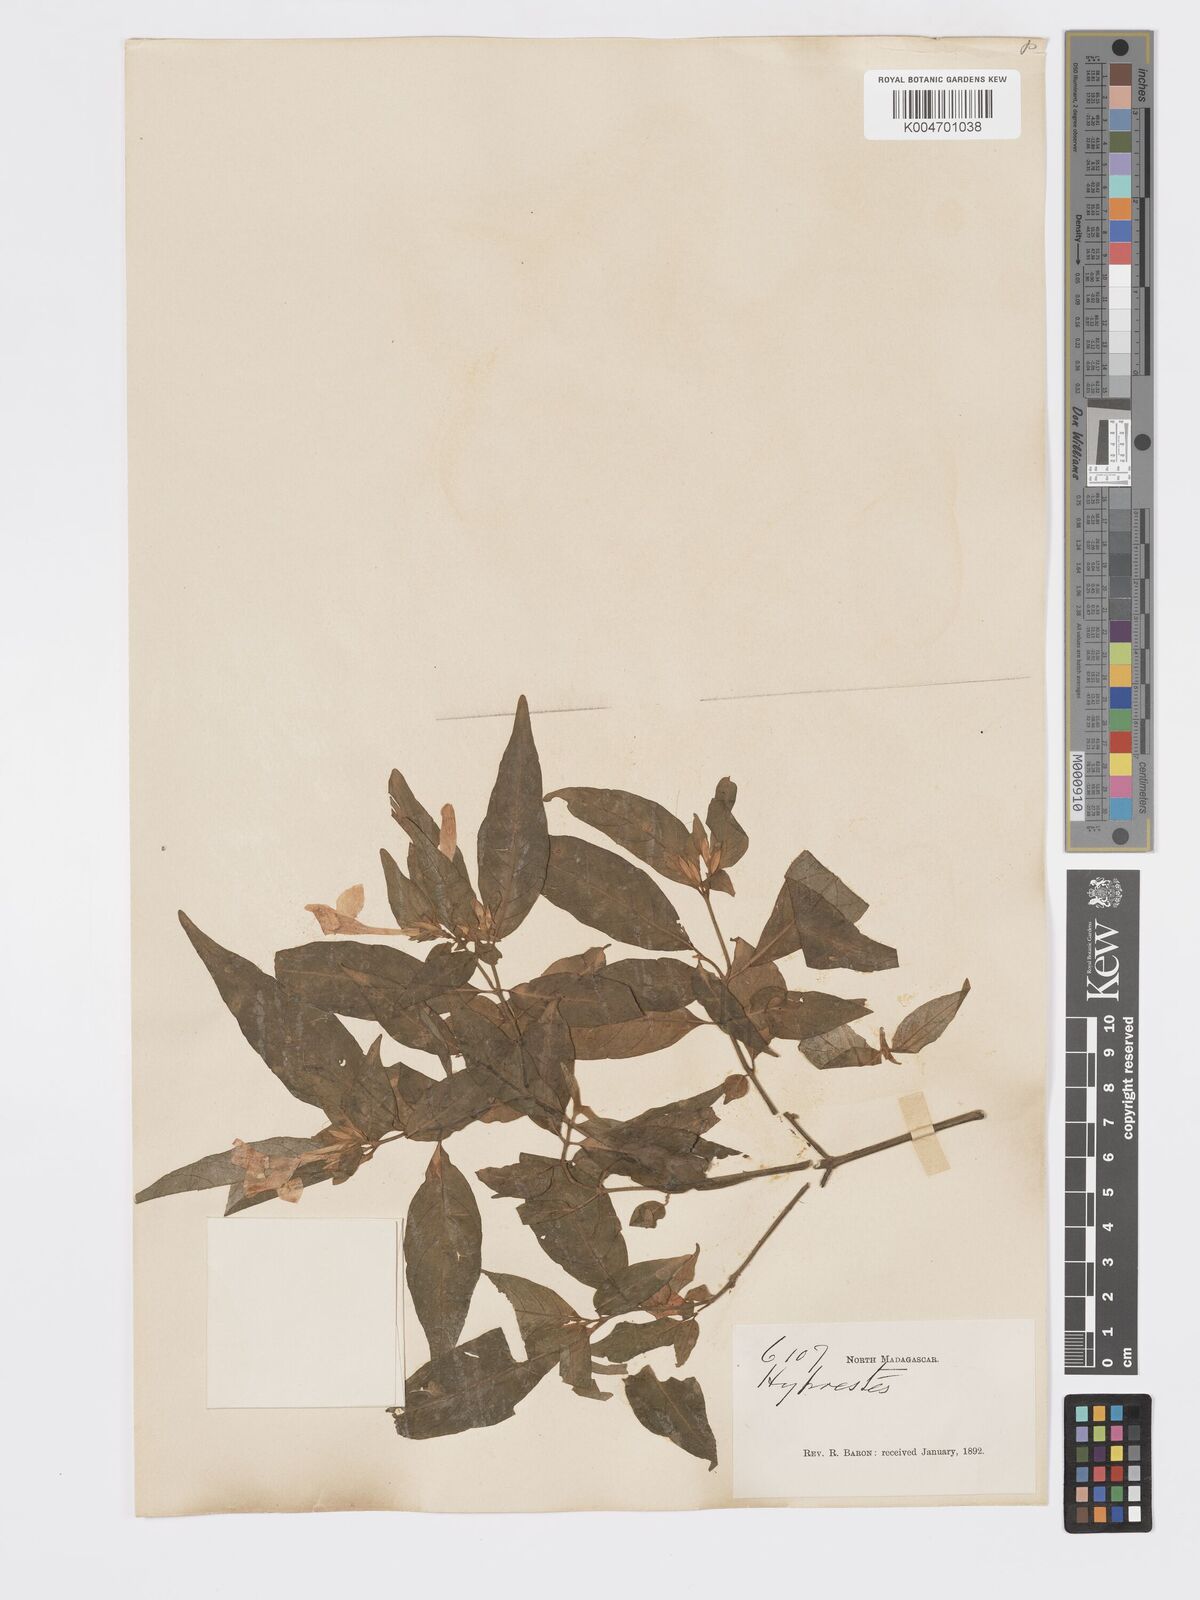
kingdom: Plantae
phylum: Tracheophyta
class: Magnoliopsida
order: Lamiales
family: Acanthaceae
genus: Hypoestes
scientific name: Hypoestes
